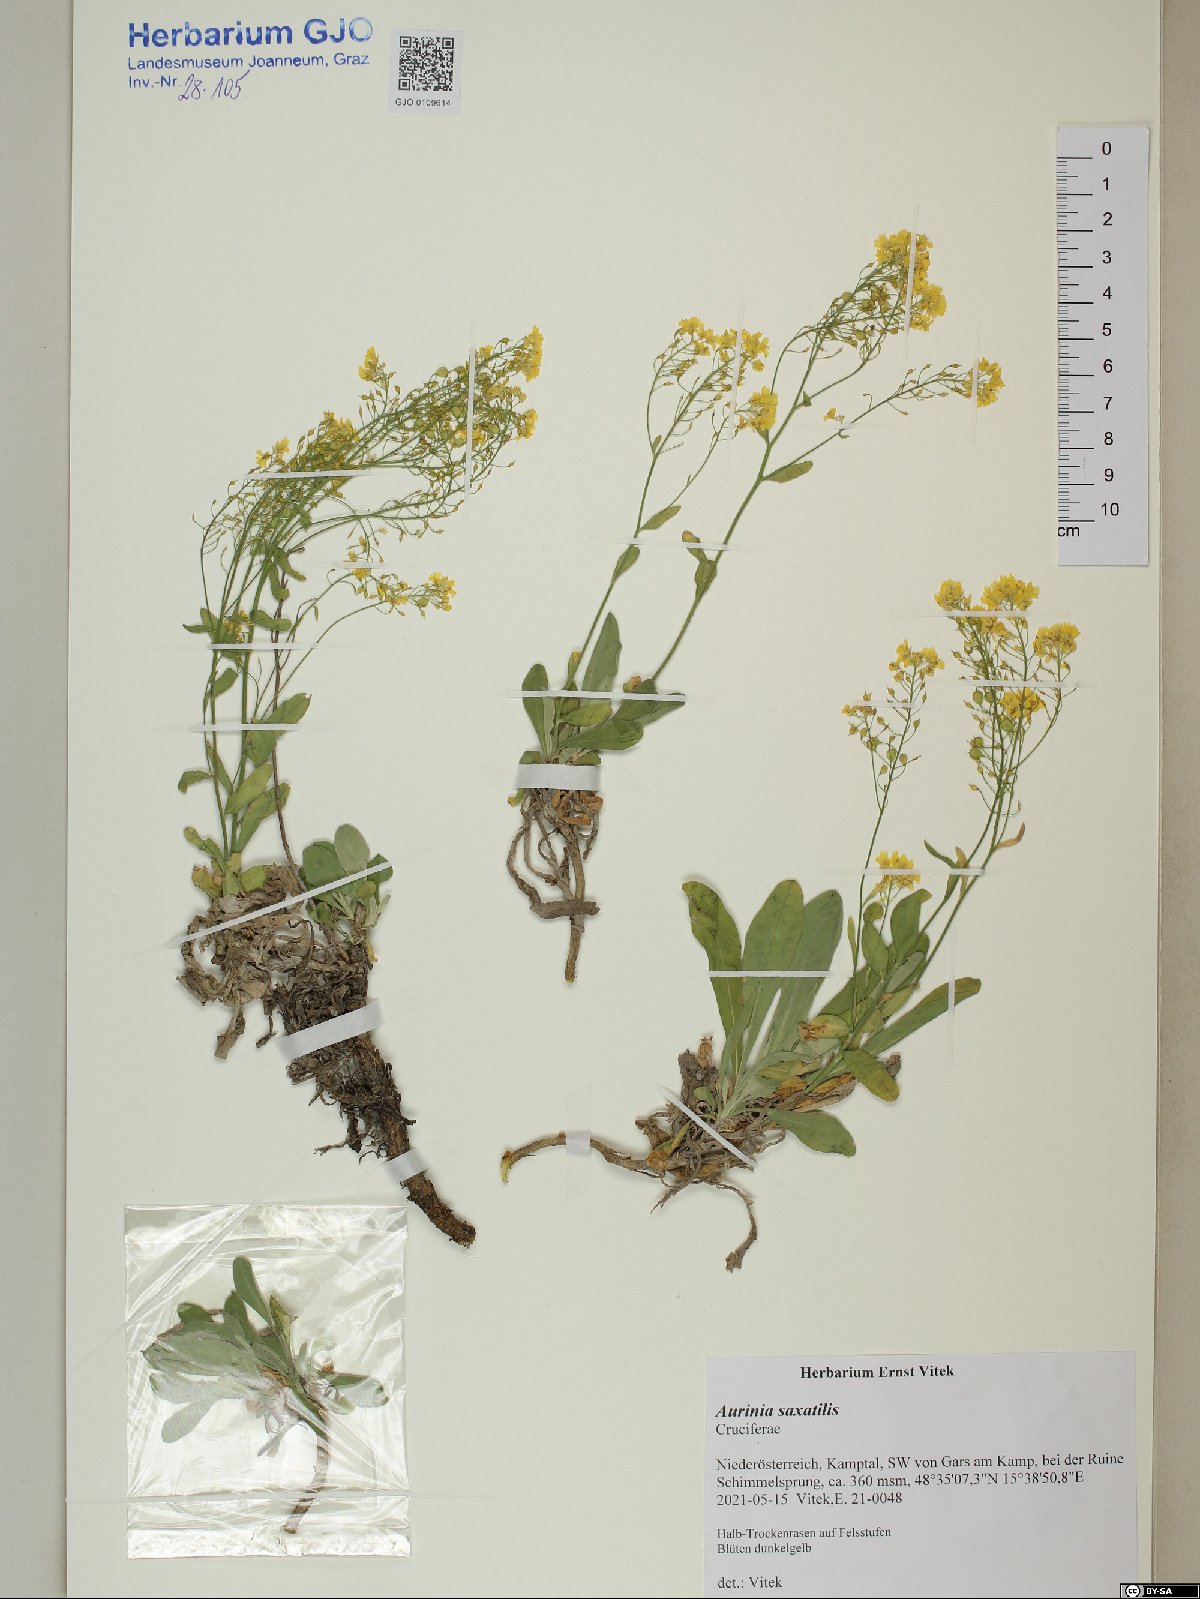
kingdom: Plantae
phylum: Tracheophyta
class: Magnoliopsida
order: Brassicales
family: Brassicaceae
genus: Aurinia
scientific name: Aurinia saxatilis
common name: Golden-tuft alyssum
